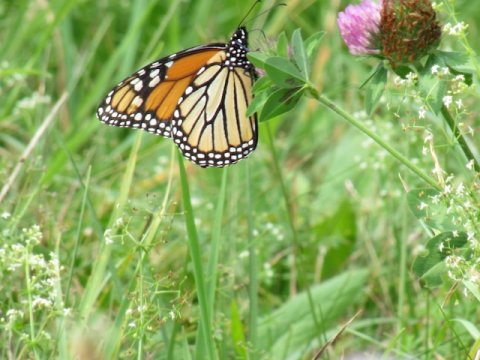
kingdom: Animalia
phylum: Arthropoda
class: Insecta
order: Lepidoptera
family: Nymphalidae
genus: Danaus
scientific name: Danaus plexippus
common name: Monarch
